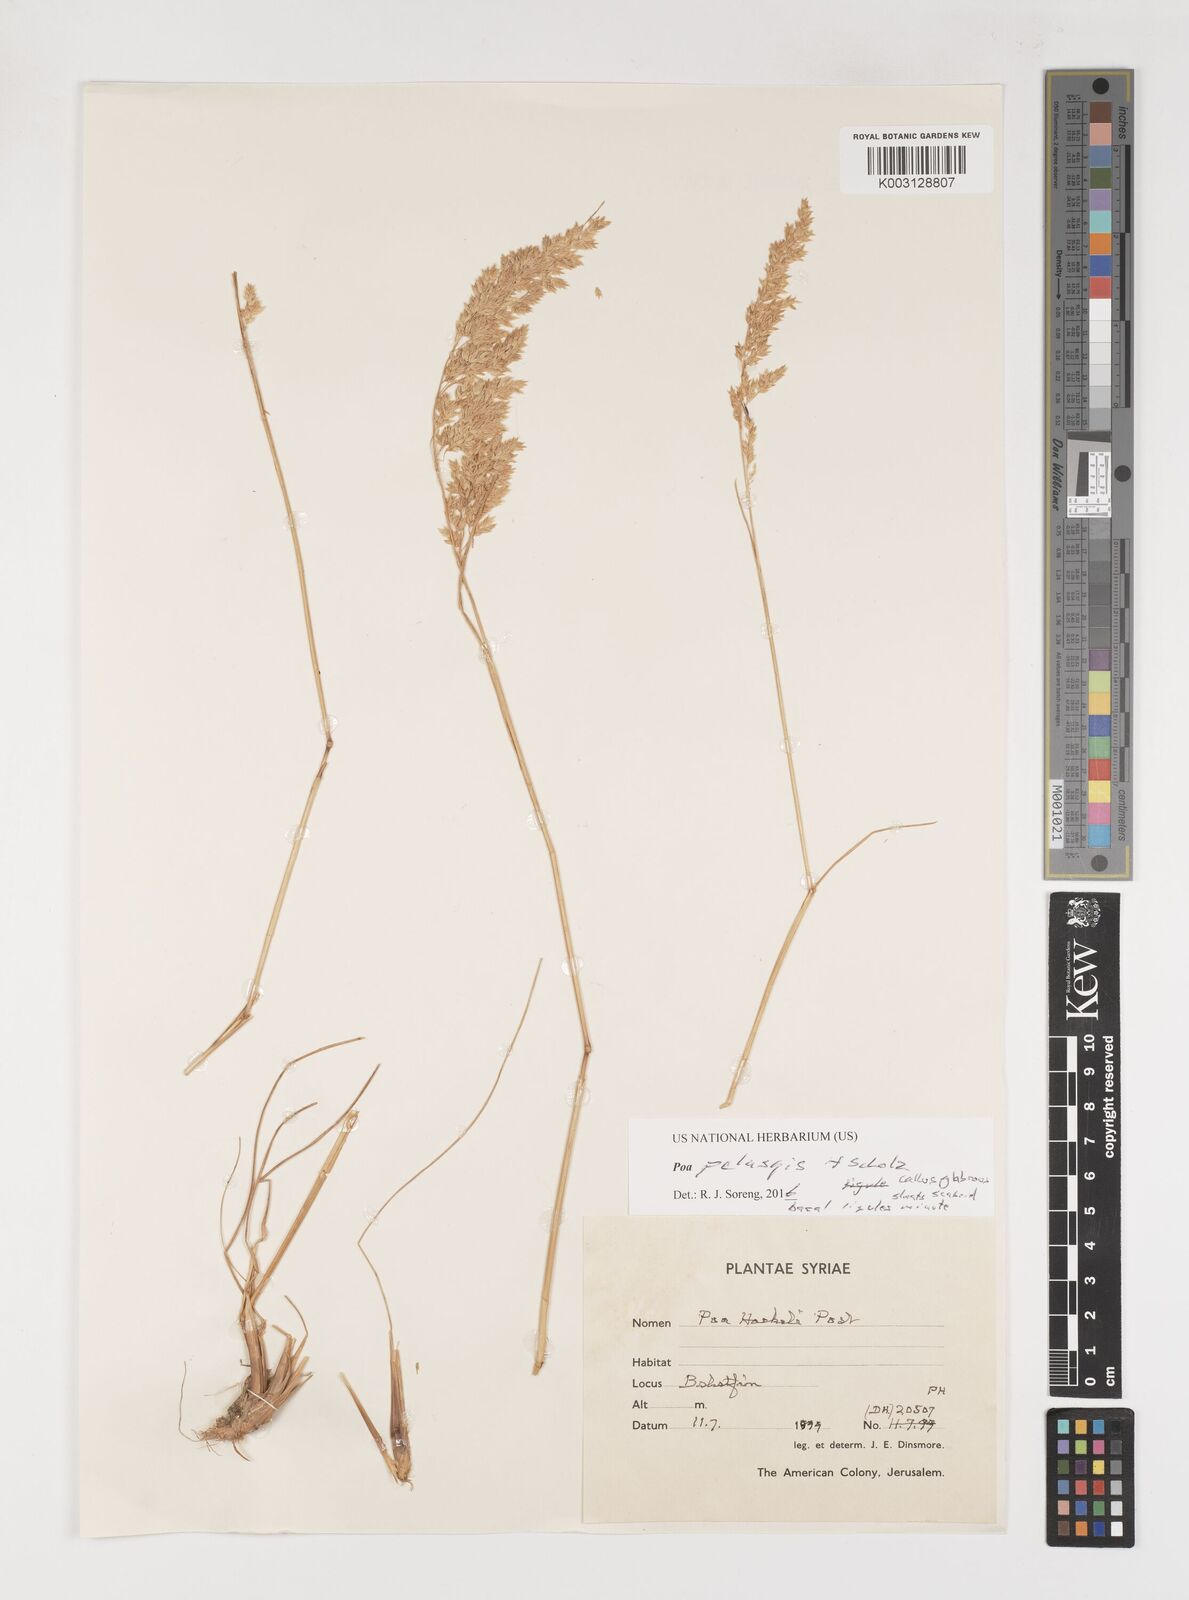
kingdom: Plantae
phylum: Tracheophyta
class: Liliopsida
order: Poales
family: Poaceae
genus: Poa
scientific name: Poa iconia
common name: Konya bluegrass
